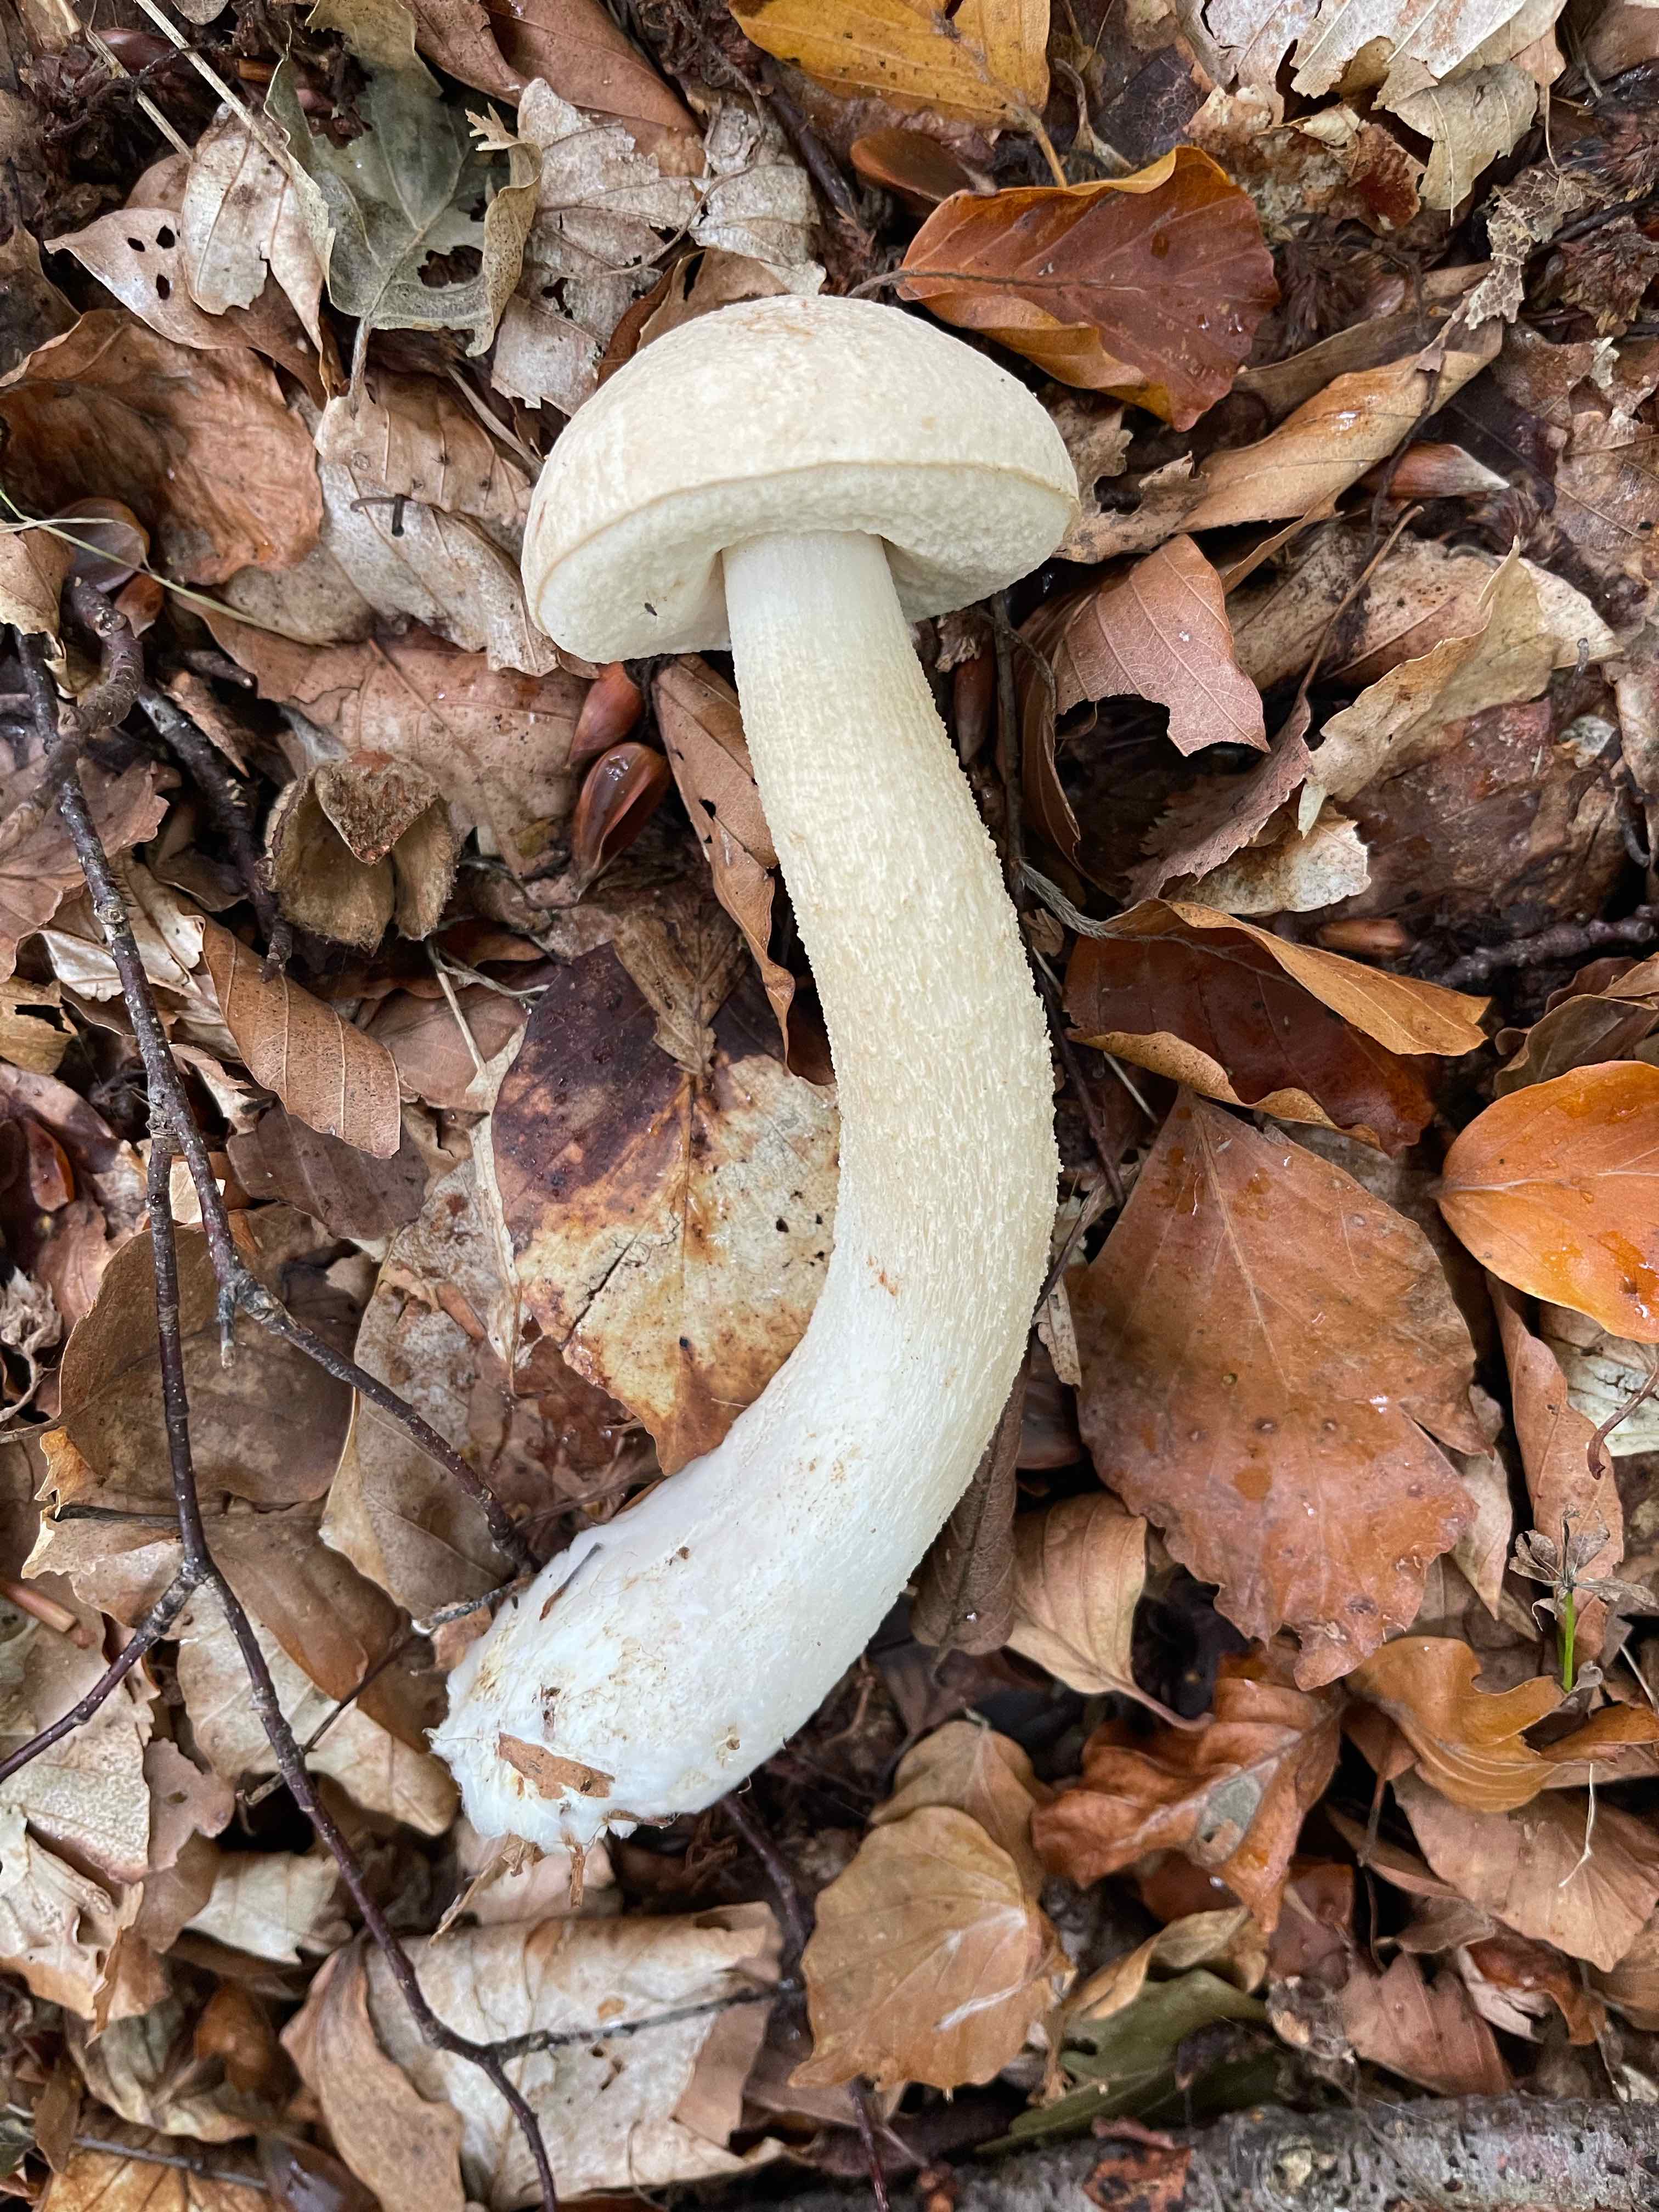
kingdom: Fungi
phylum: Basidiomycota
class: Agaricomycetes
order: Boletales
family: Boletaceae
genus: Leccinum
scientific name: Leccinum scabrum
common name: hvid skælrørhat
